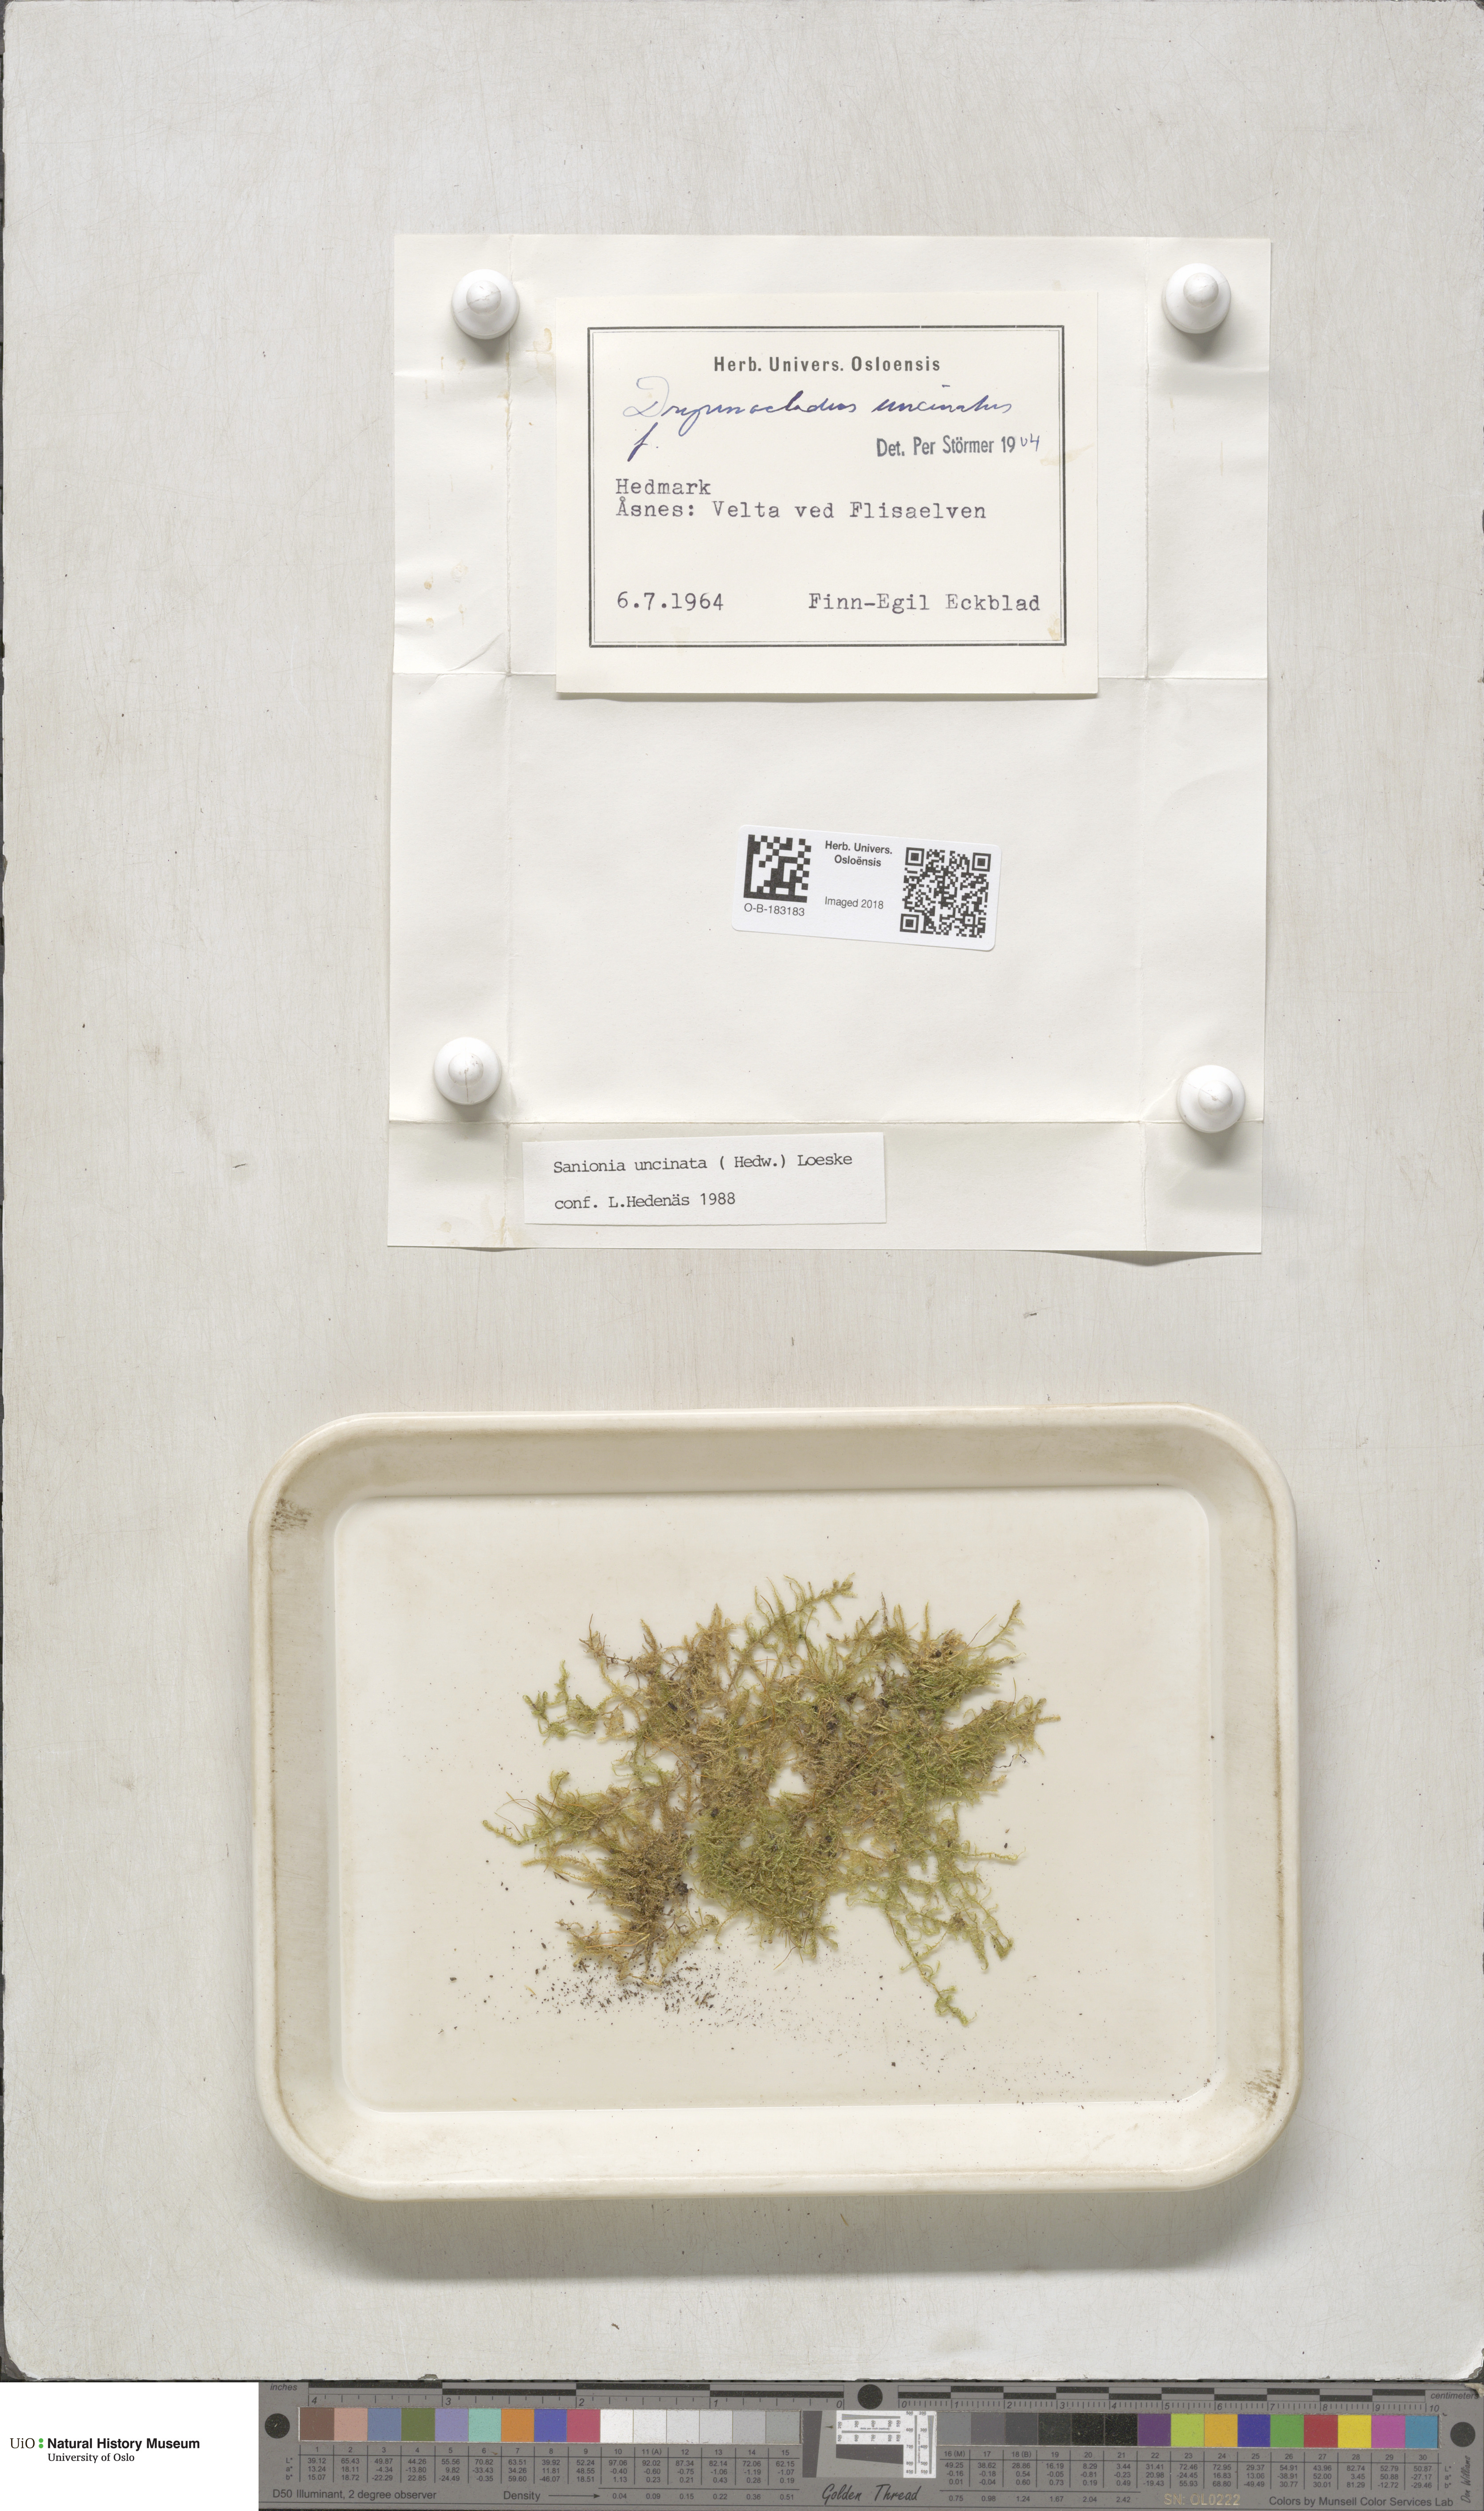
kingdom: Plantae
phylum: Bryophyta
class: Bryopsida
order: Hypnales
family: Scorpidiaceae
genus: Sanionia
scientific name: Sanionia uncinata
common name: Sickle moss
